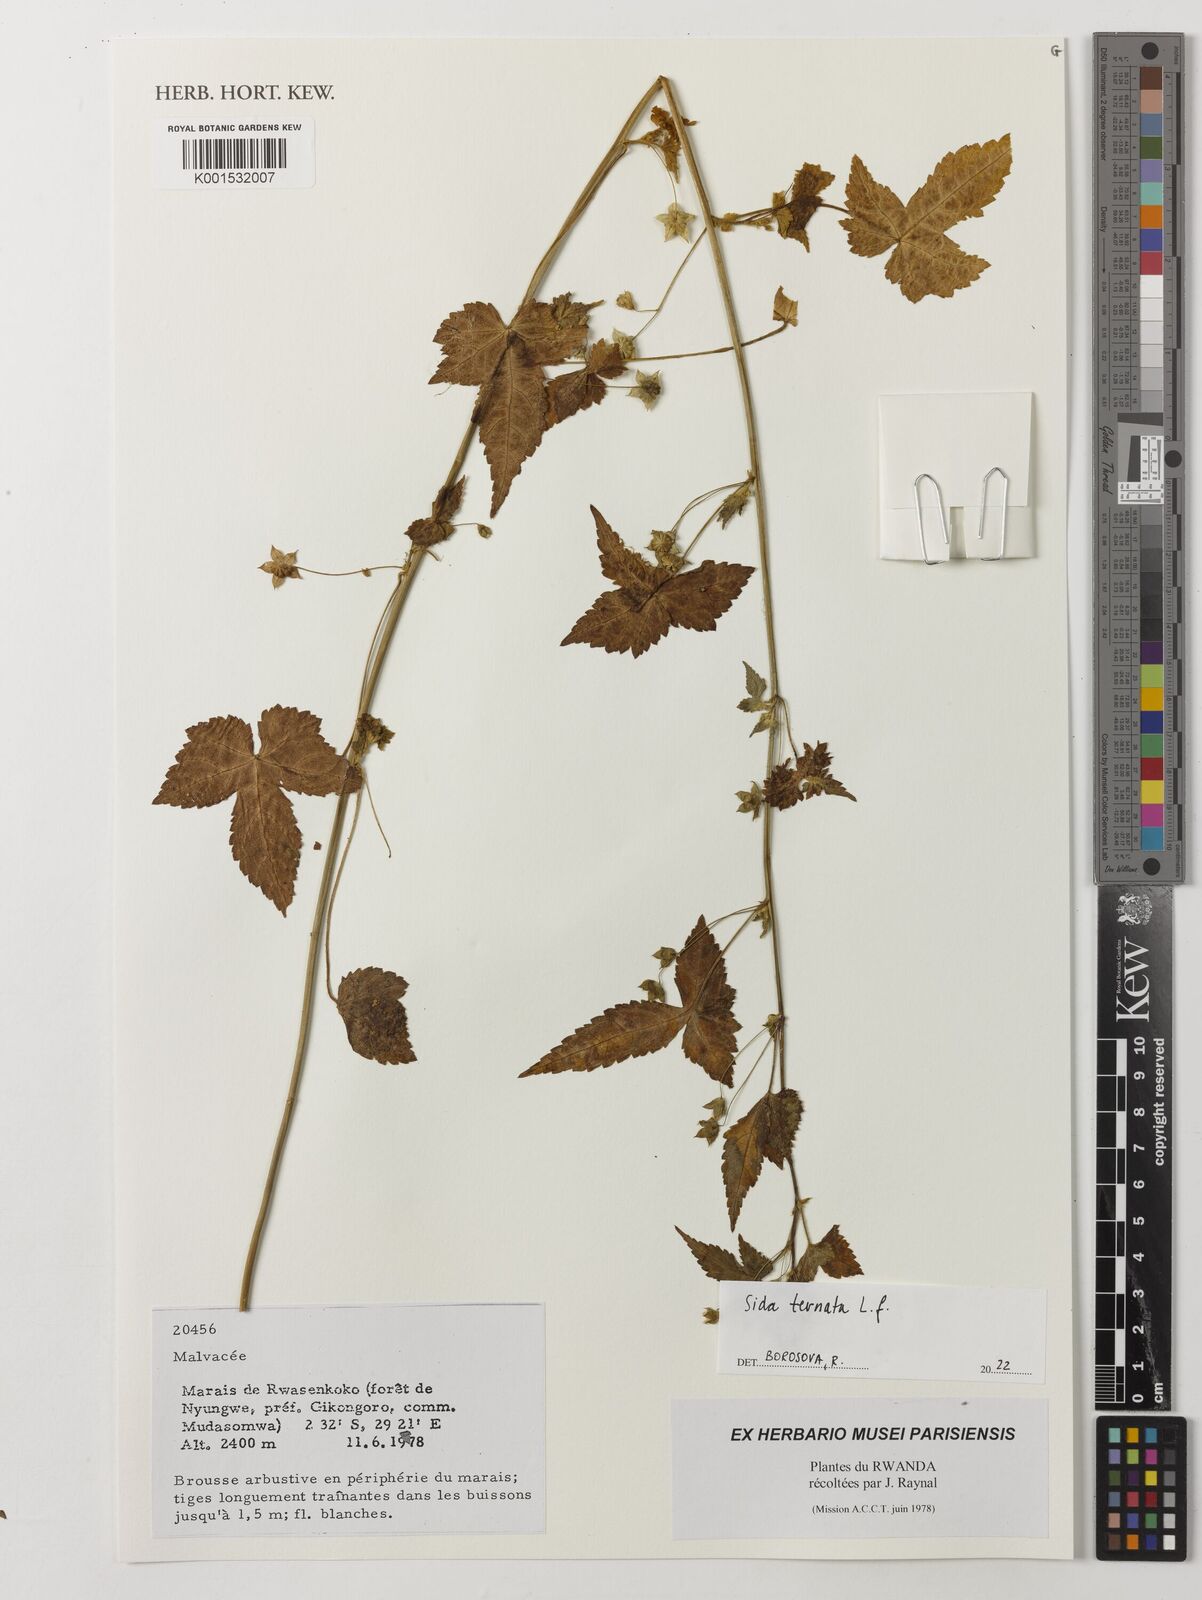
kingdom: Plantae
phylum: Tracheophyta
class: Magnoliopsida
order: Malvales
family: Malvaceae
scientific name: Malvaceae
